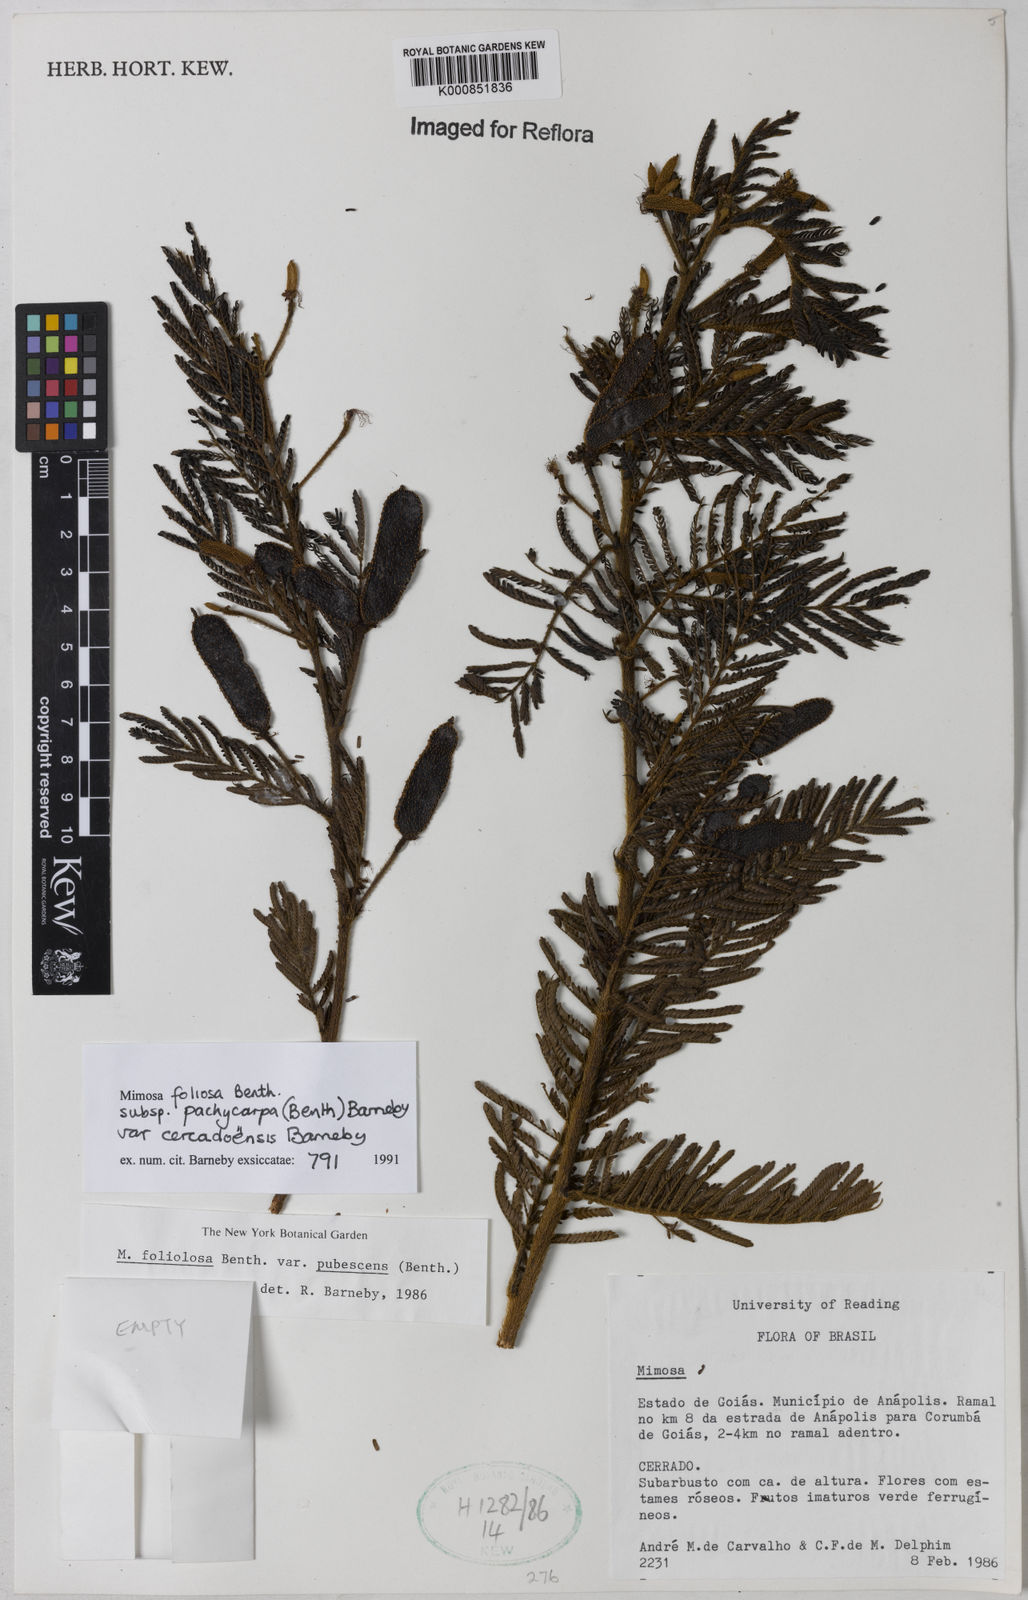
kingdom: Plantae
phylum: Tracheophyta
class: Magnoliopsida
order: Fabales
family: Fabaceae
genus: Mimosa
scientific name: Mimosa foliolosa
